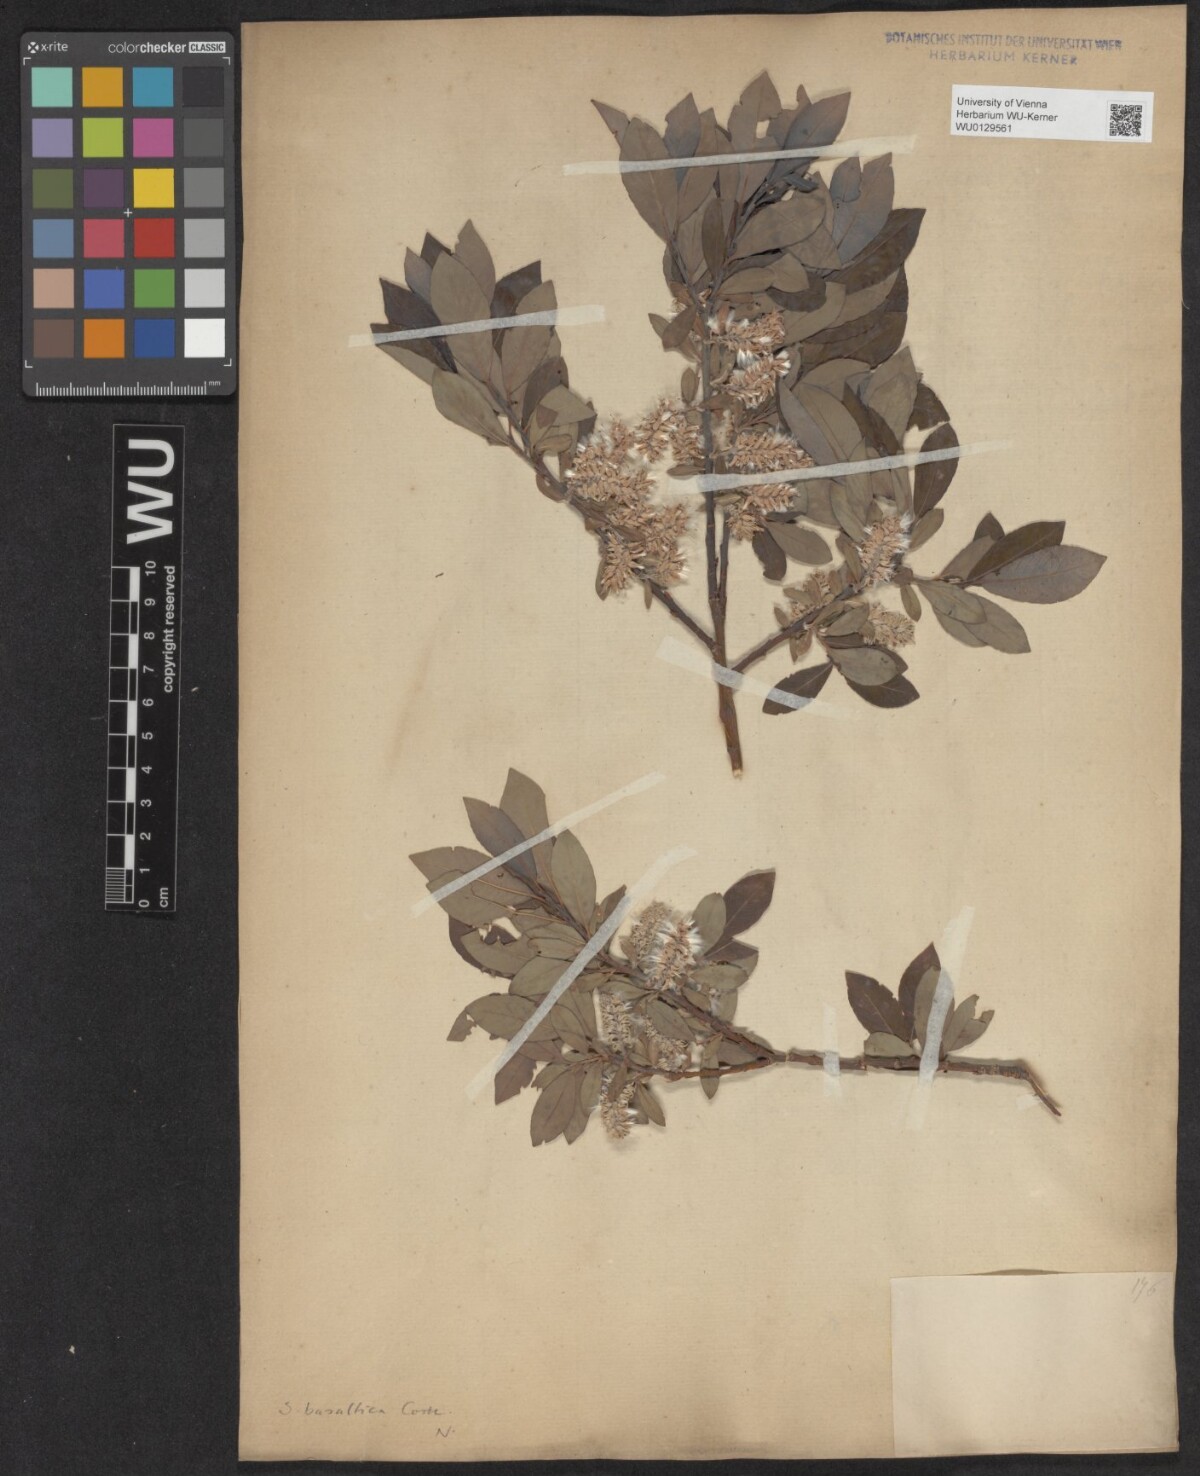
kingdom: Plantae
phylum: Tracheophyta
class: Magnoliopsida
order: Malpighiales
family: Salicaceae
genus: Salix
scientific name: Salix basaltica
